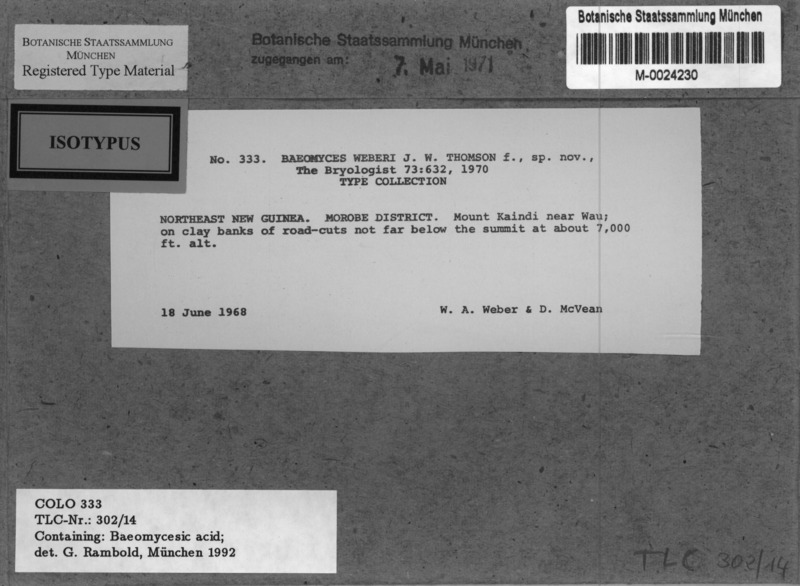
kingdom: Fungi
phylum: Ascomycota
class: Lecanoromycetes
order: Pertusariales
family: Icmadophilaceae
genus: Dibaeis
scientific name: Dibaeis weberi
